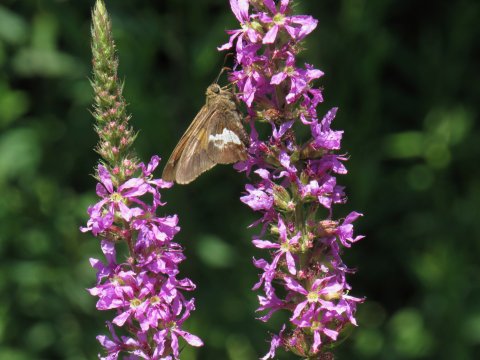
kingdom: Animalia
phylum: Arthropoda
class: Insecta
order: Lepidoptera
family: Hesperiidae
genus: Epargyreus
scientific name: Epargyreus clarus
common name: Silver-spotted Skipper
